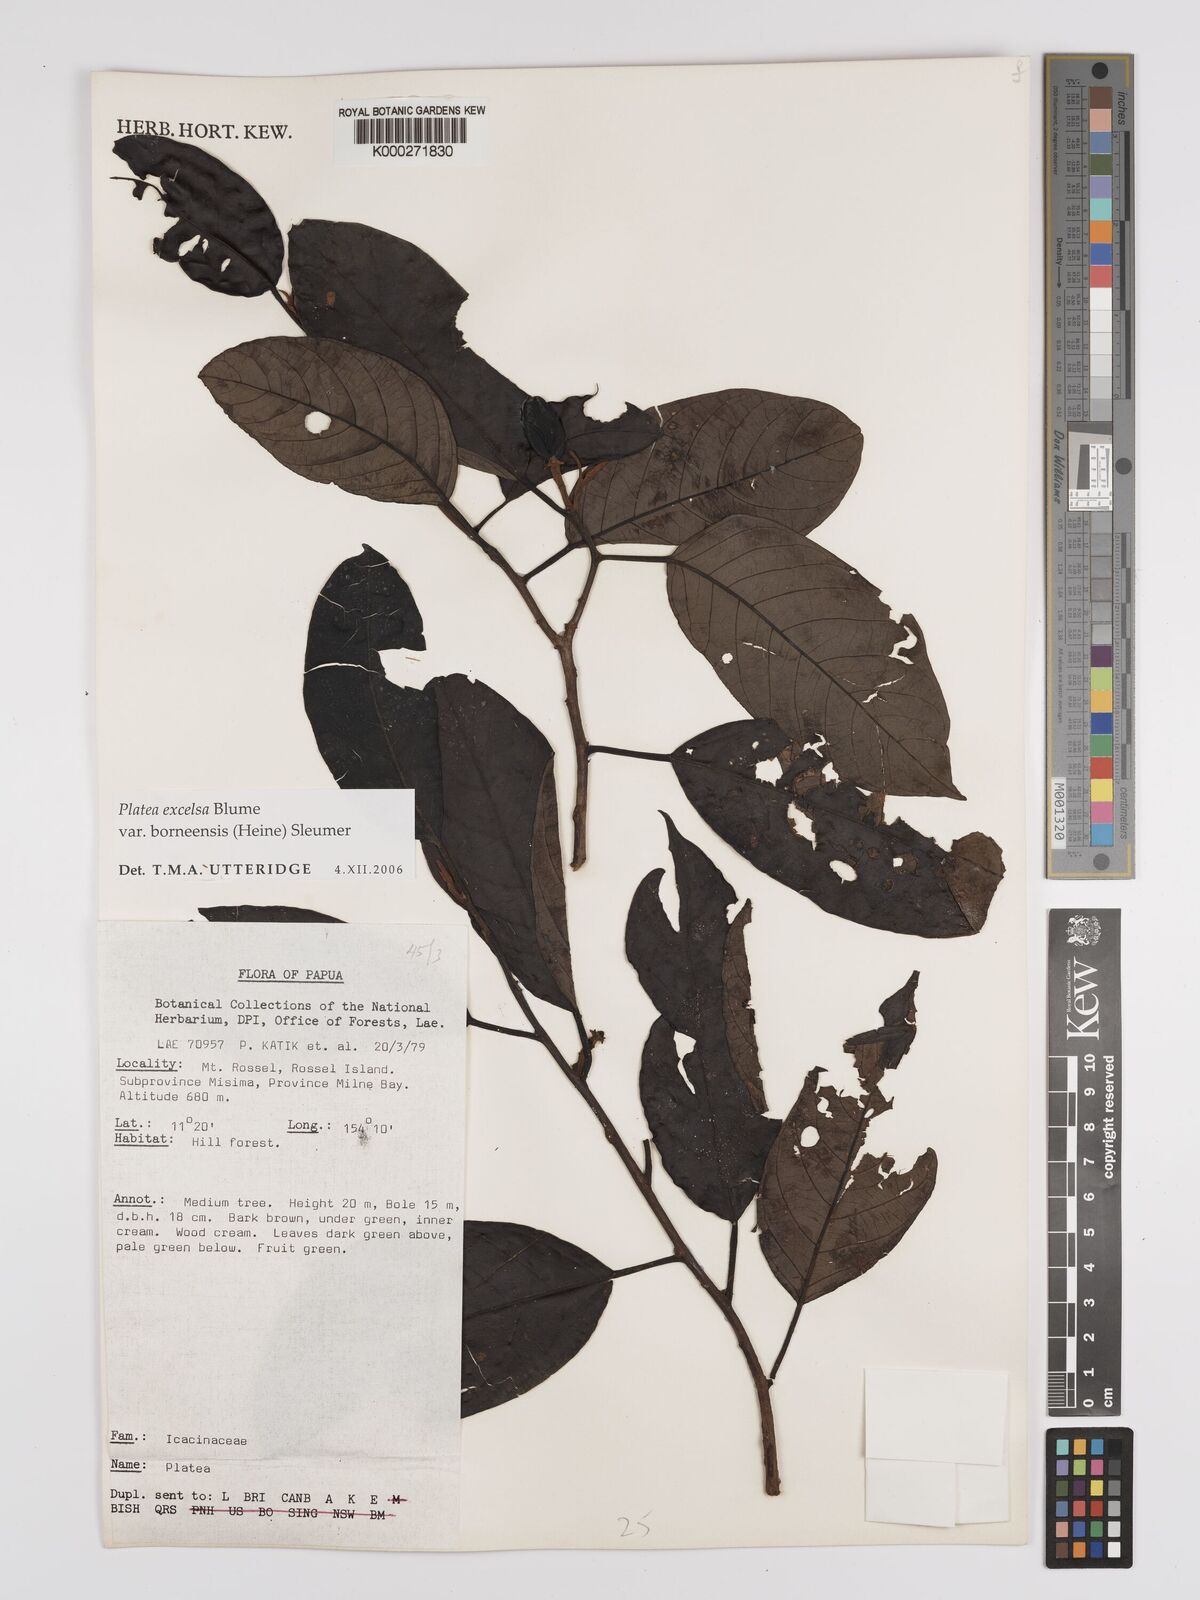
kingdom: Plantae
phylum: Tracheophyta
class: Magnoliopsida
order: Metteniusales
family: Metteniusaceae
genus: Platea
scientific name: Platea excelsa
